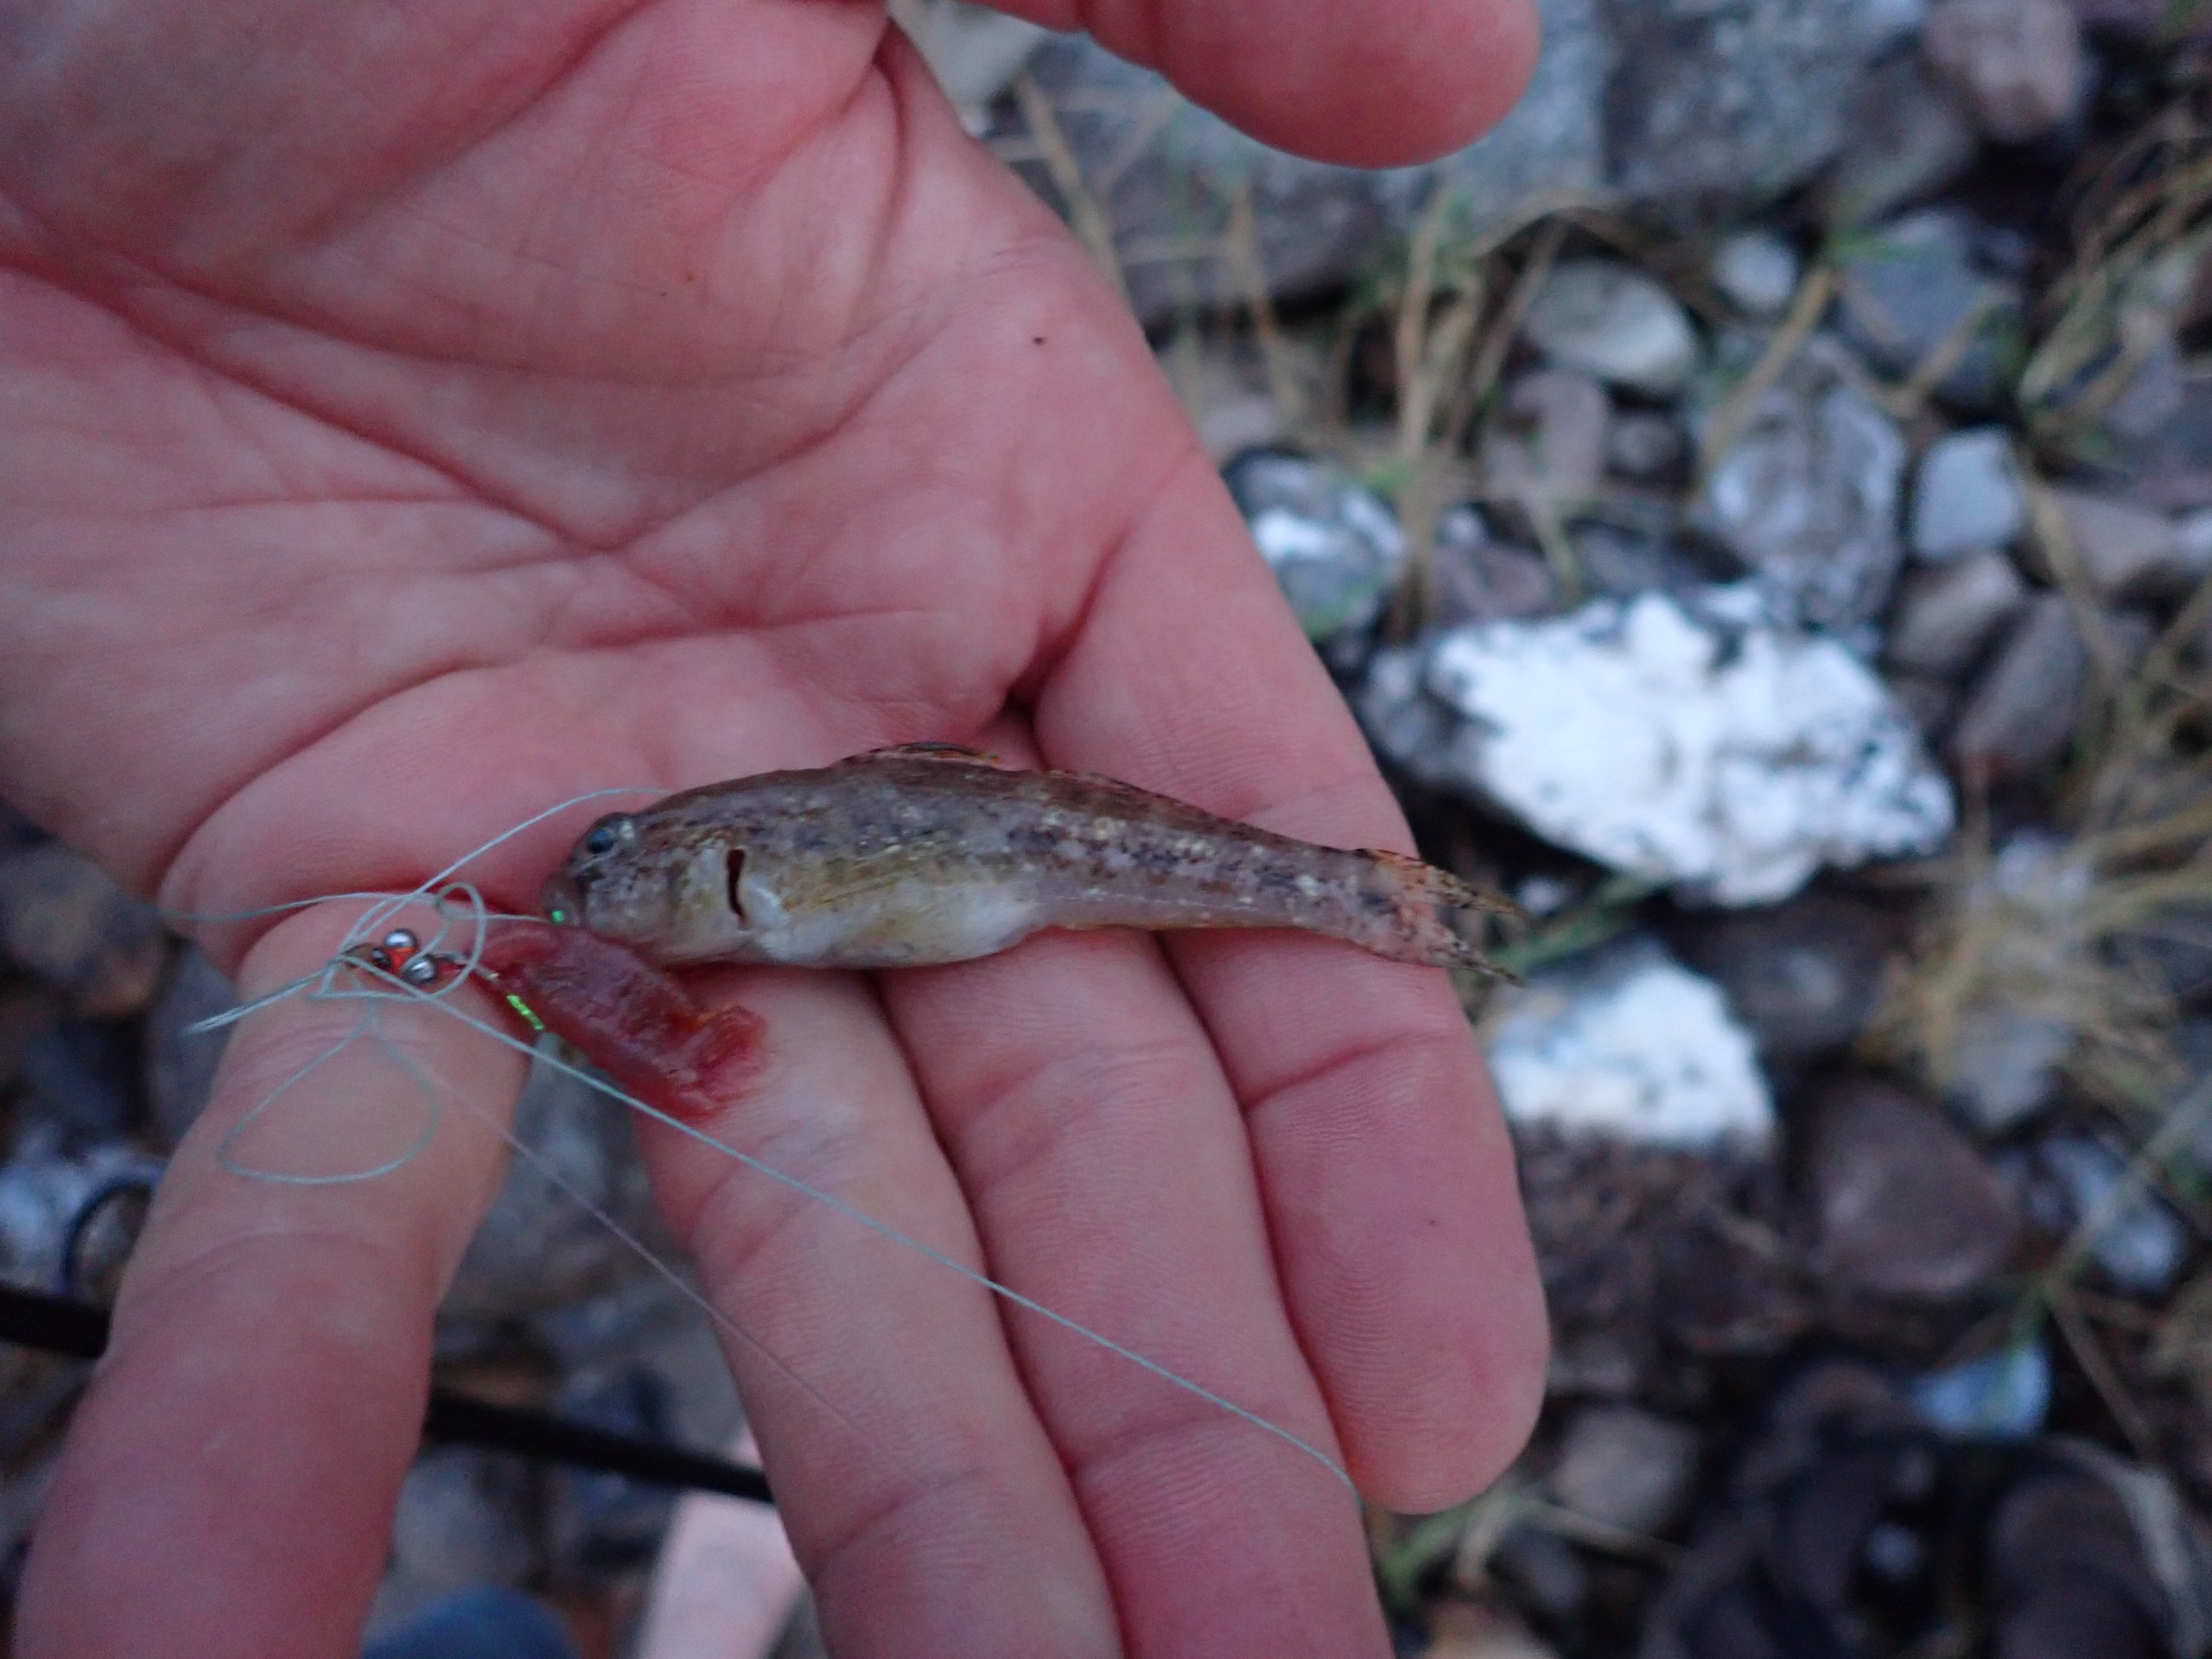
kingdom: Animalia
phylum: Chordata
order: Perciformes
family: Gobiidae
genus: Gobius
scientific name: Gobius niger
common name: Sortkutling
